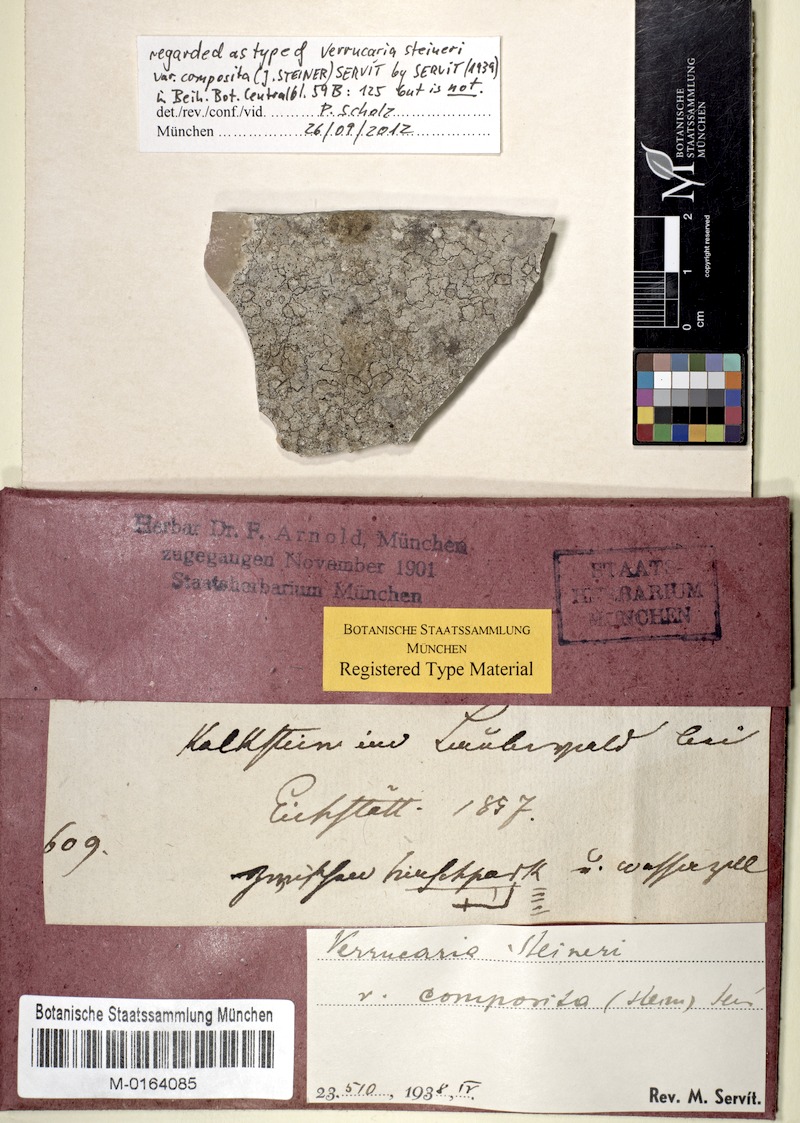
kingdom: Fungi
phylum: Ascomycota
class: Eurotiomycetes
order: Verrucariales
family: Verrucariaceae
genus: Bagliettoa
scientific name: Bagliettoa steineri
